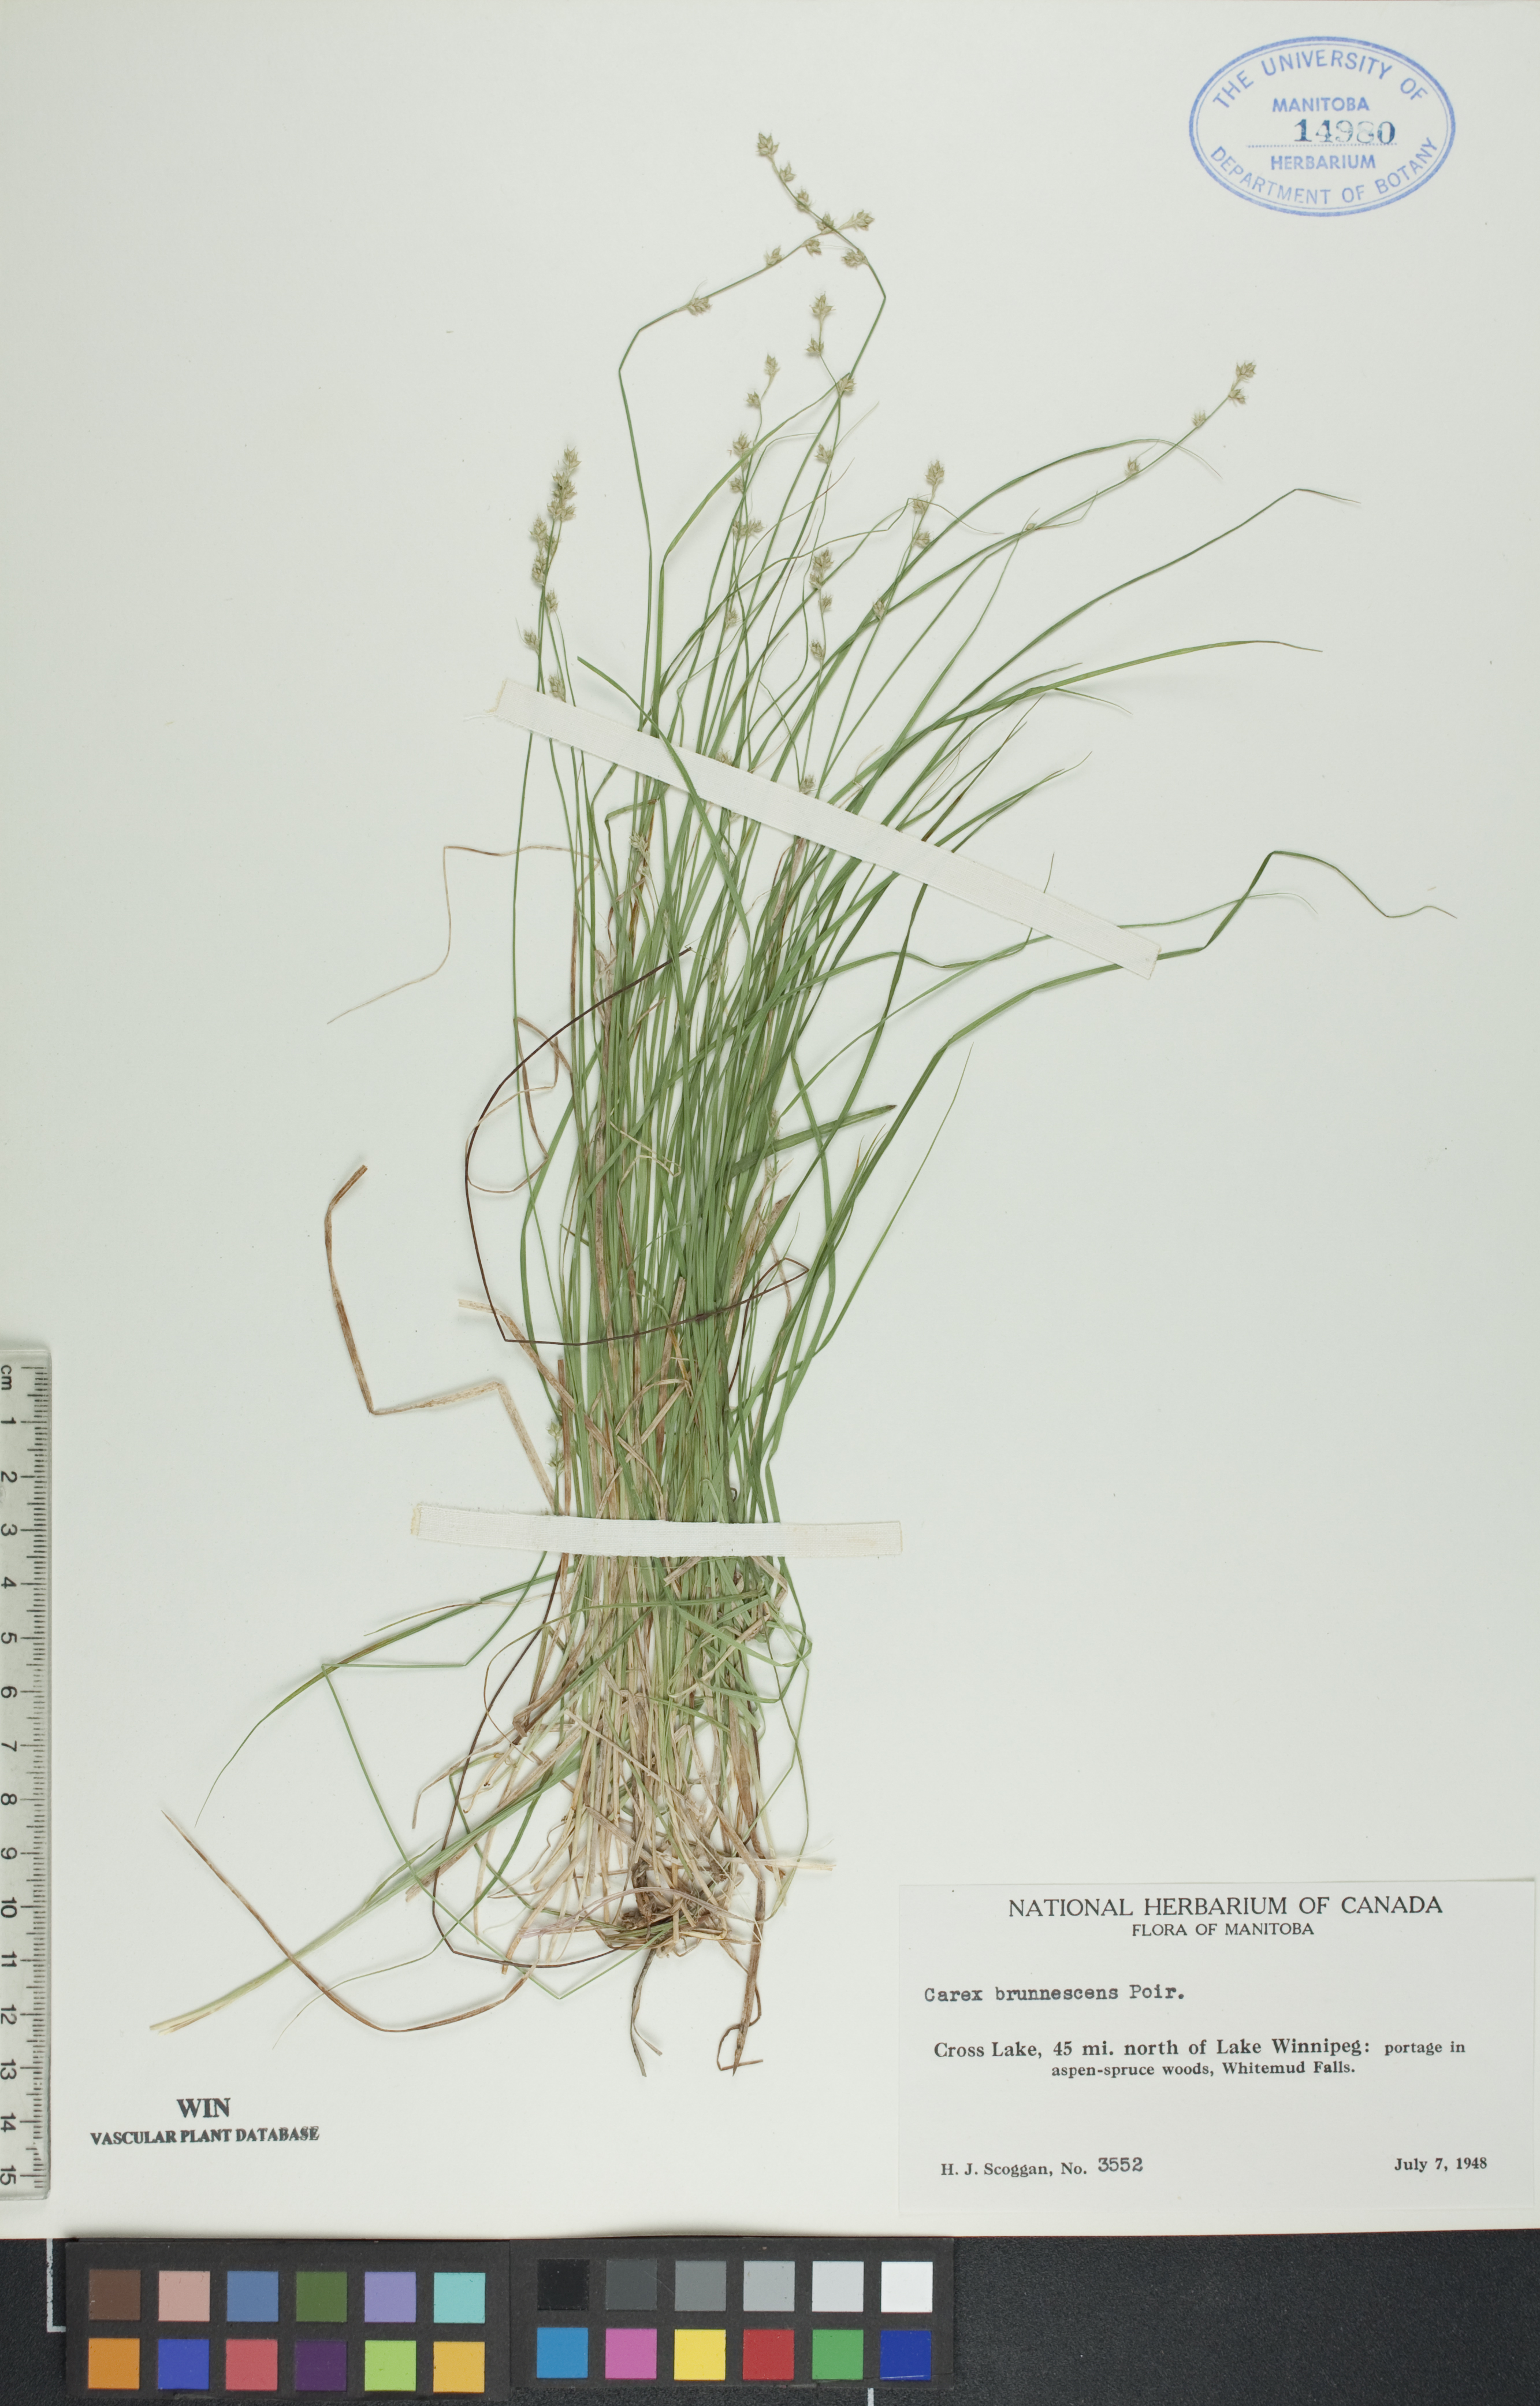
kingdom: Plantae
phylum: Tracheophyta
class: Liliopsida
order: Poales
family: Cyperaceae
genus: Carex
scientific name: Carex brunnescens
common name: Brown sedge
